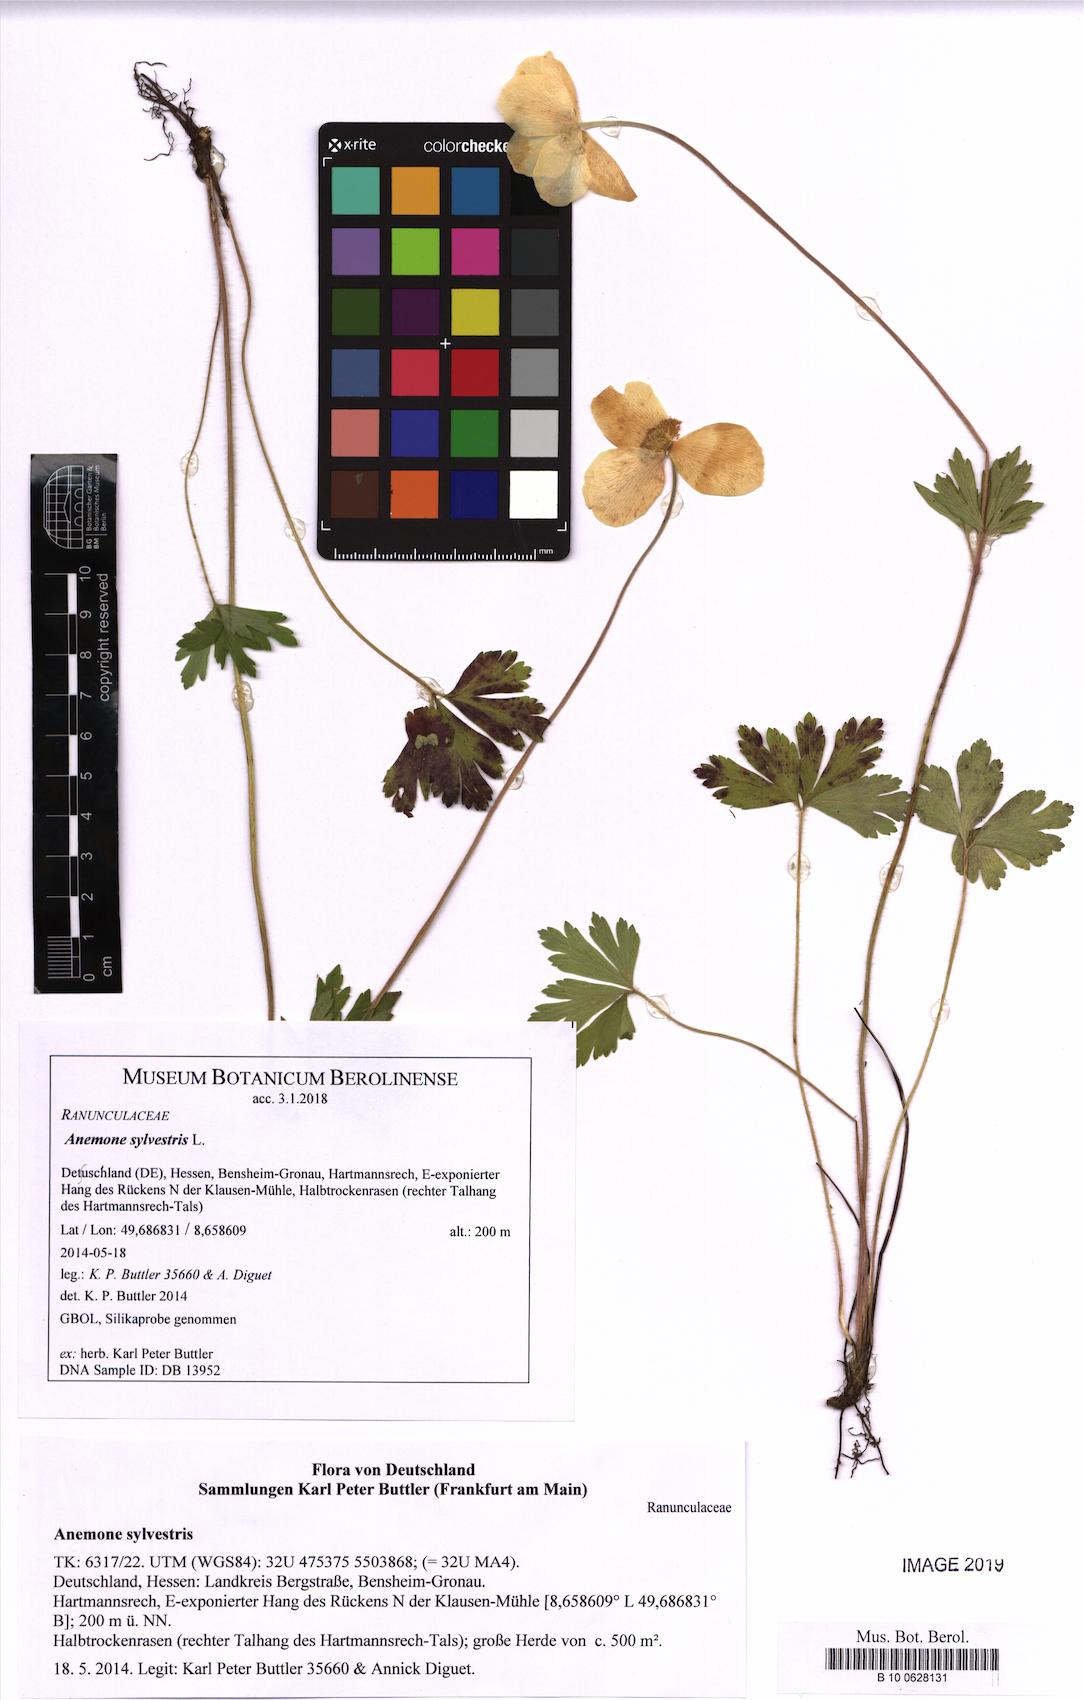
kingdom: Plantae
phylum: Tracheophyta
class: Magnoliopsida
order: Ranunculales
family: Ranunculaceae
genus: Anemone
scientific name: Anemone sylvestris
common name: Snowdrop anemone
